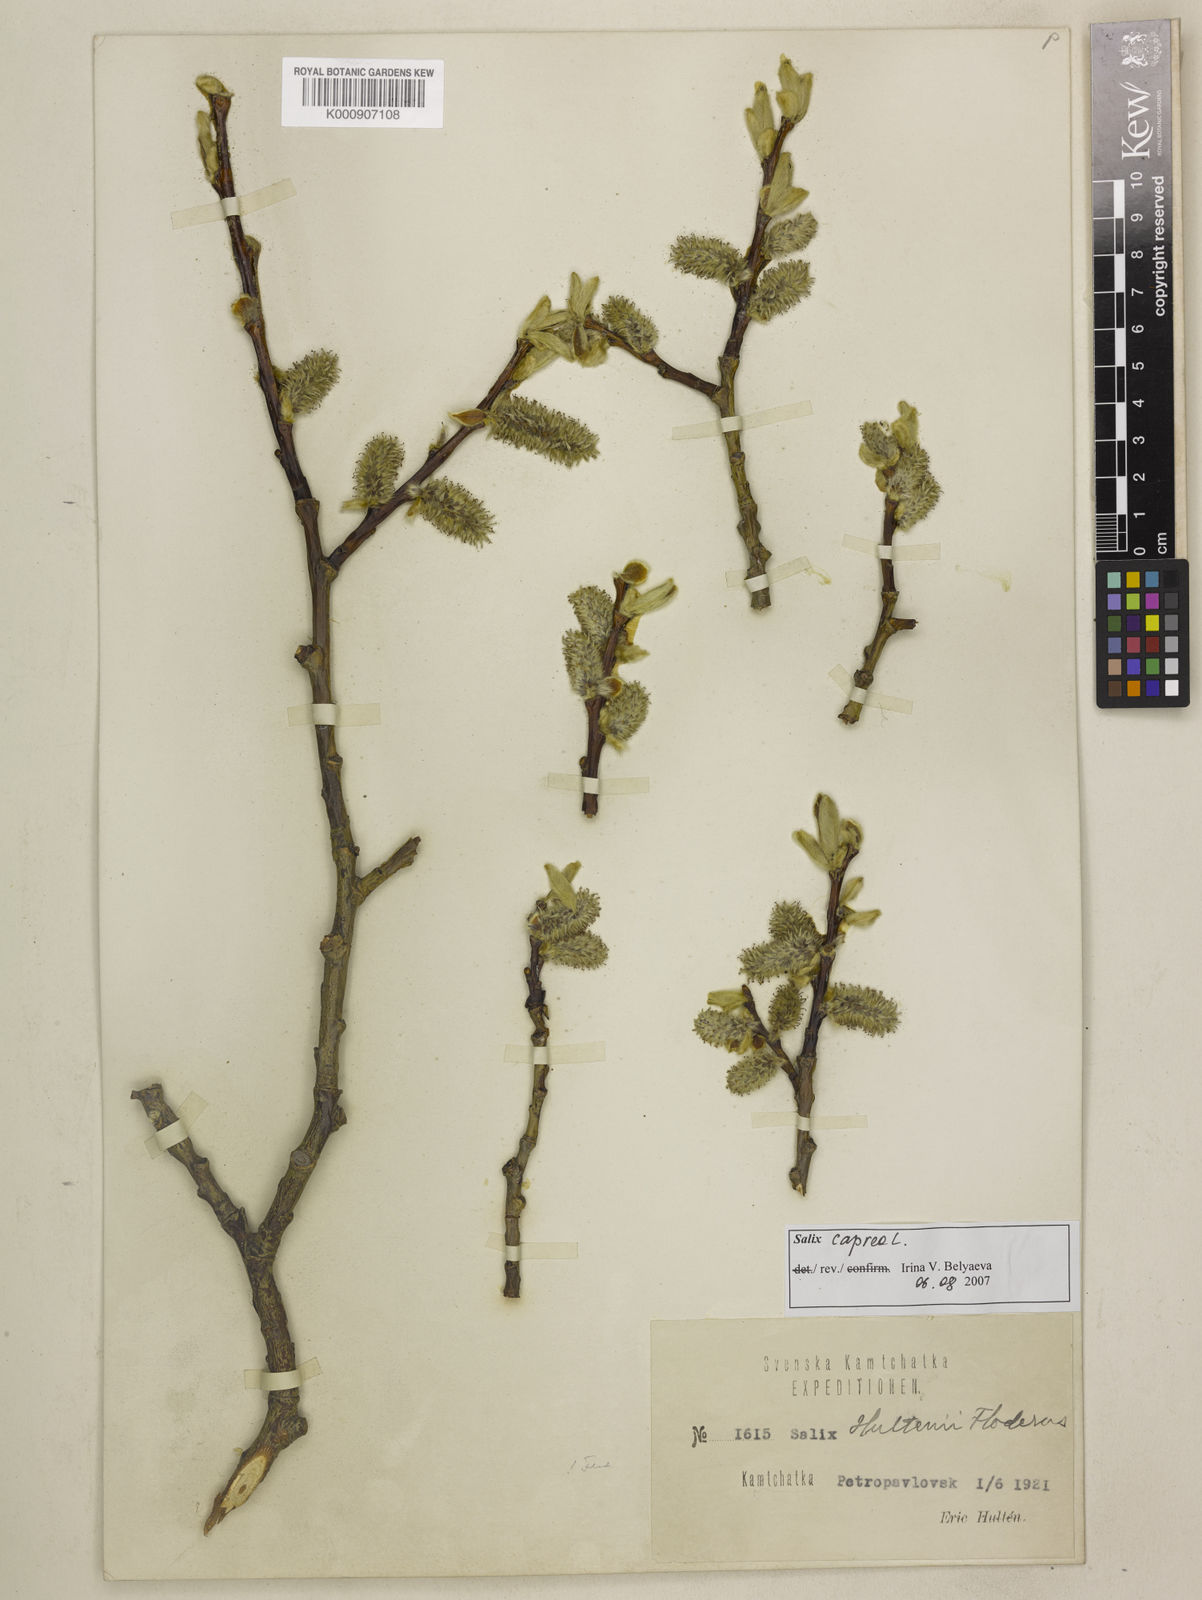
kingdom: Plantae
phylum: Tracheophyta
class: Magnoliopsida
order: Malpighiales
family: Salicaceae
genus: Salix
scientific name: Salix caprea
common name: Goat willow
